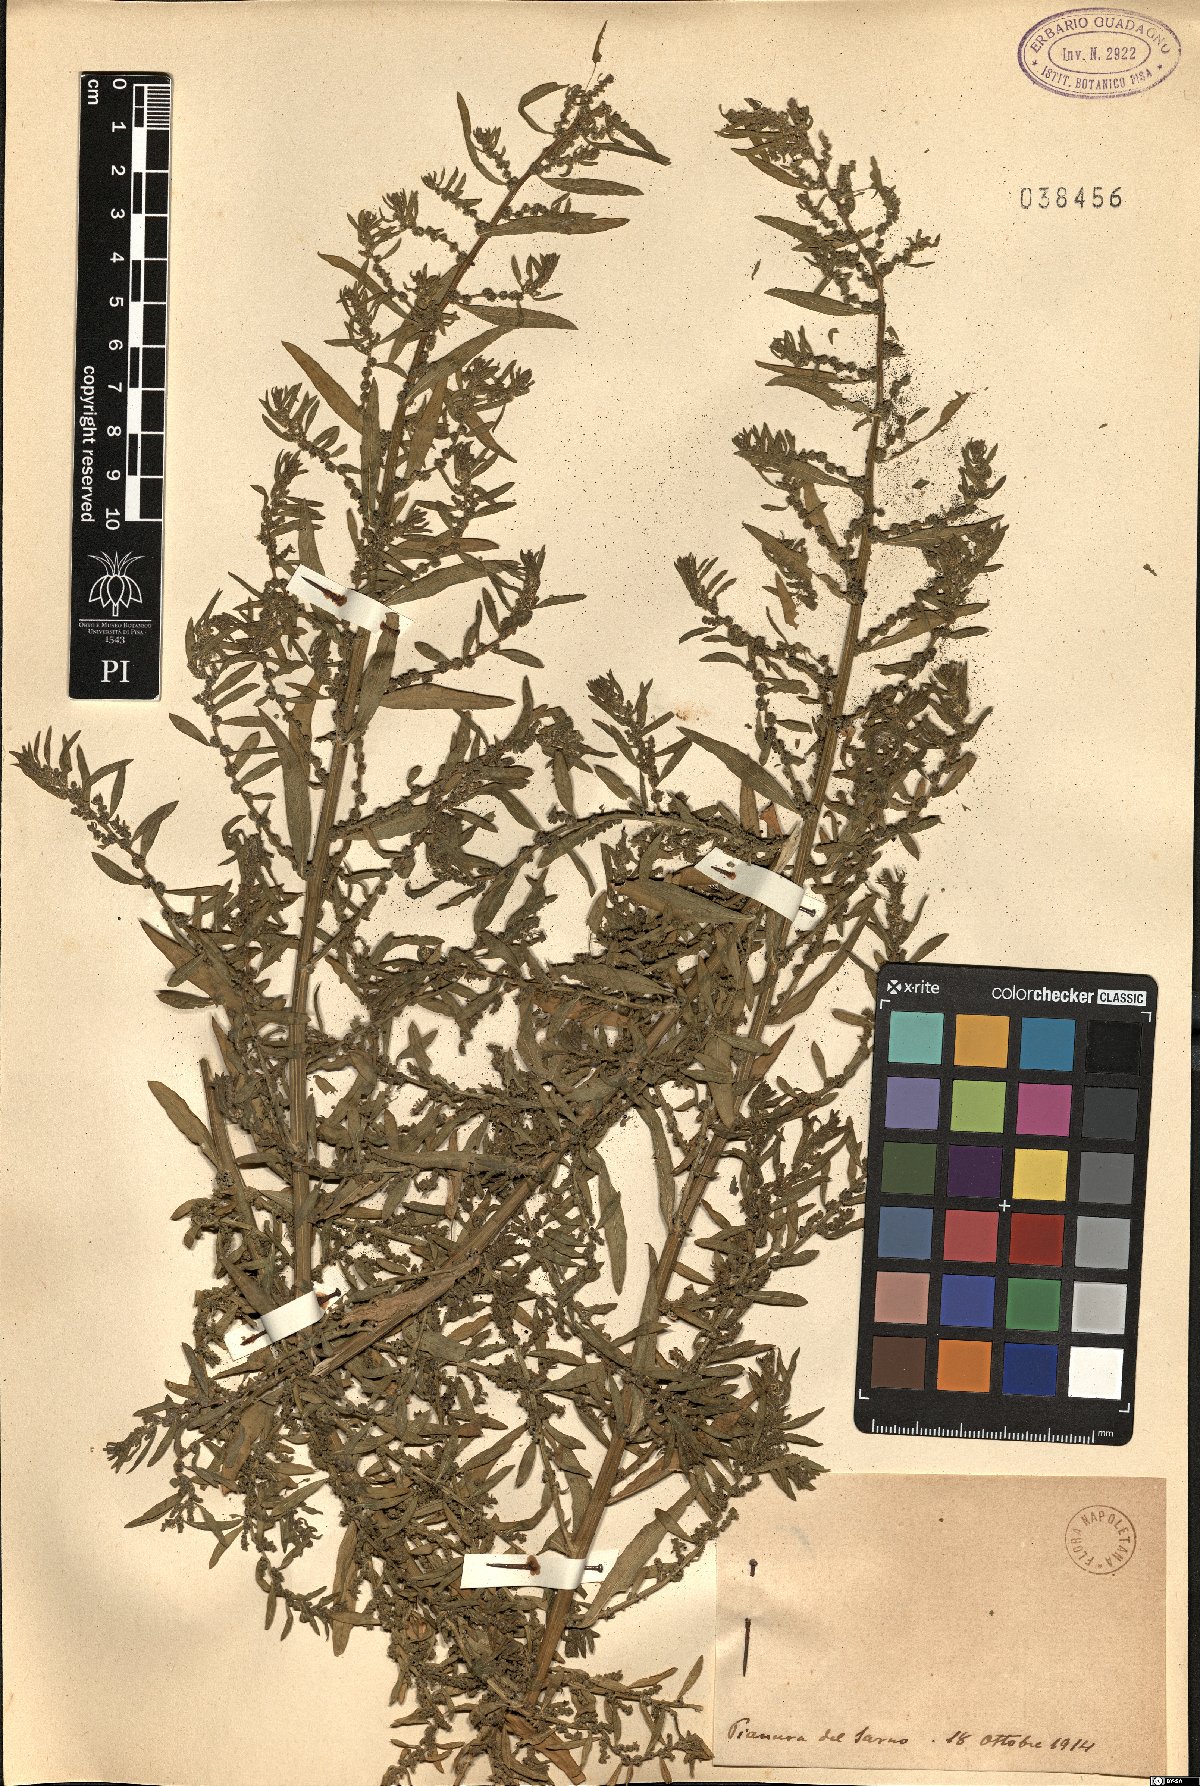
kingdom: Plantae
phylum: Tracheophyta
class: Magnoliopsida
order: Caryophyllales
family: Amaranthaceae
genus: Chenopodium
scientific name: Chenopodium
